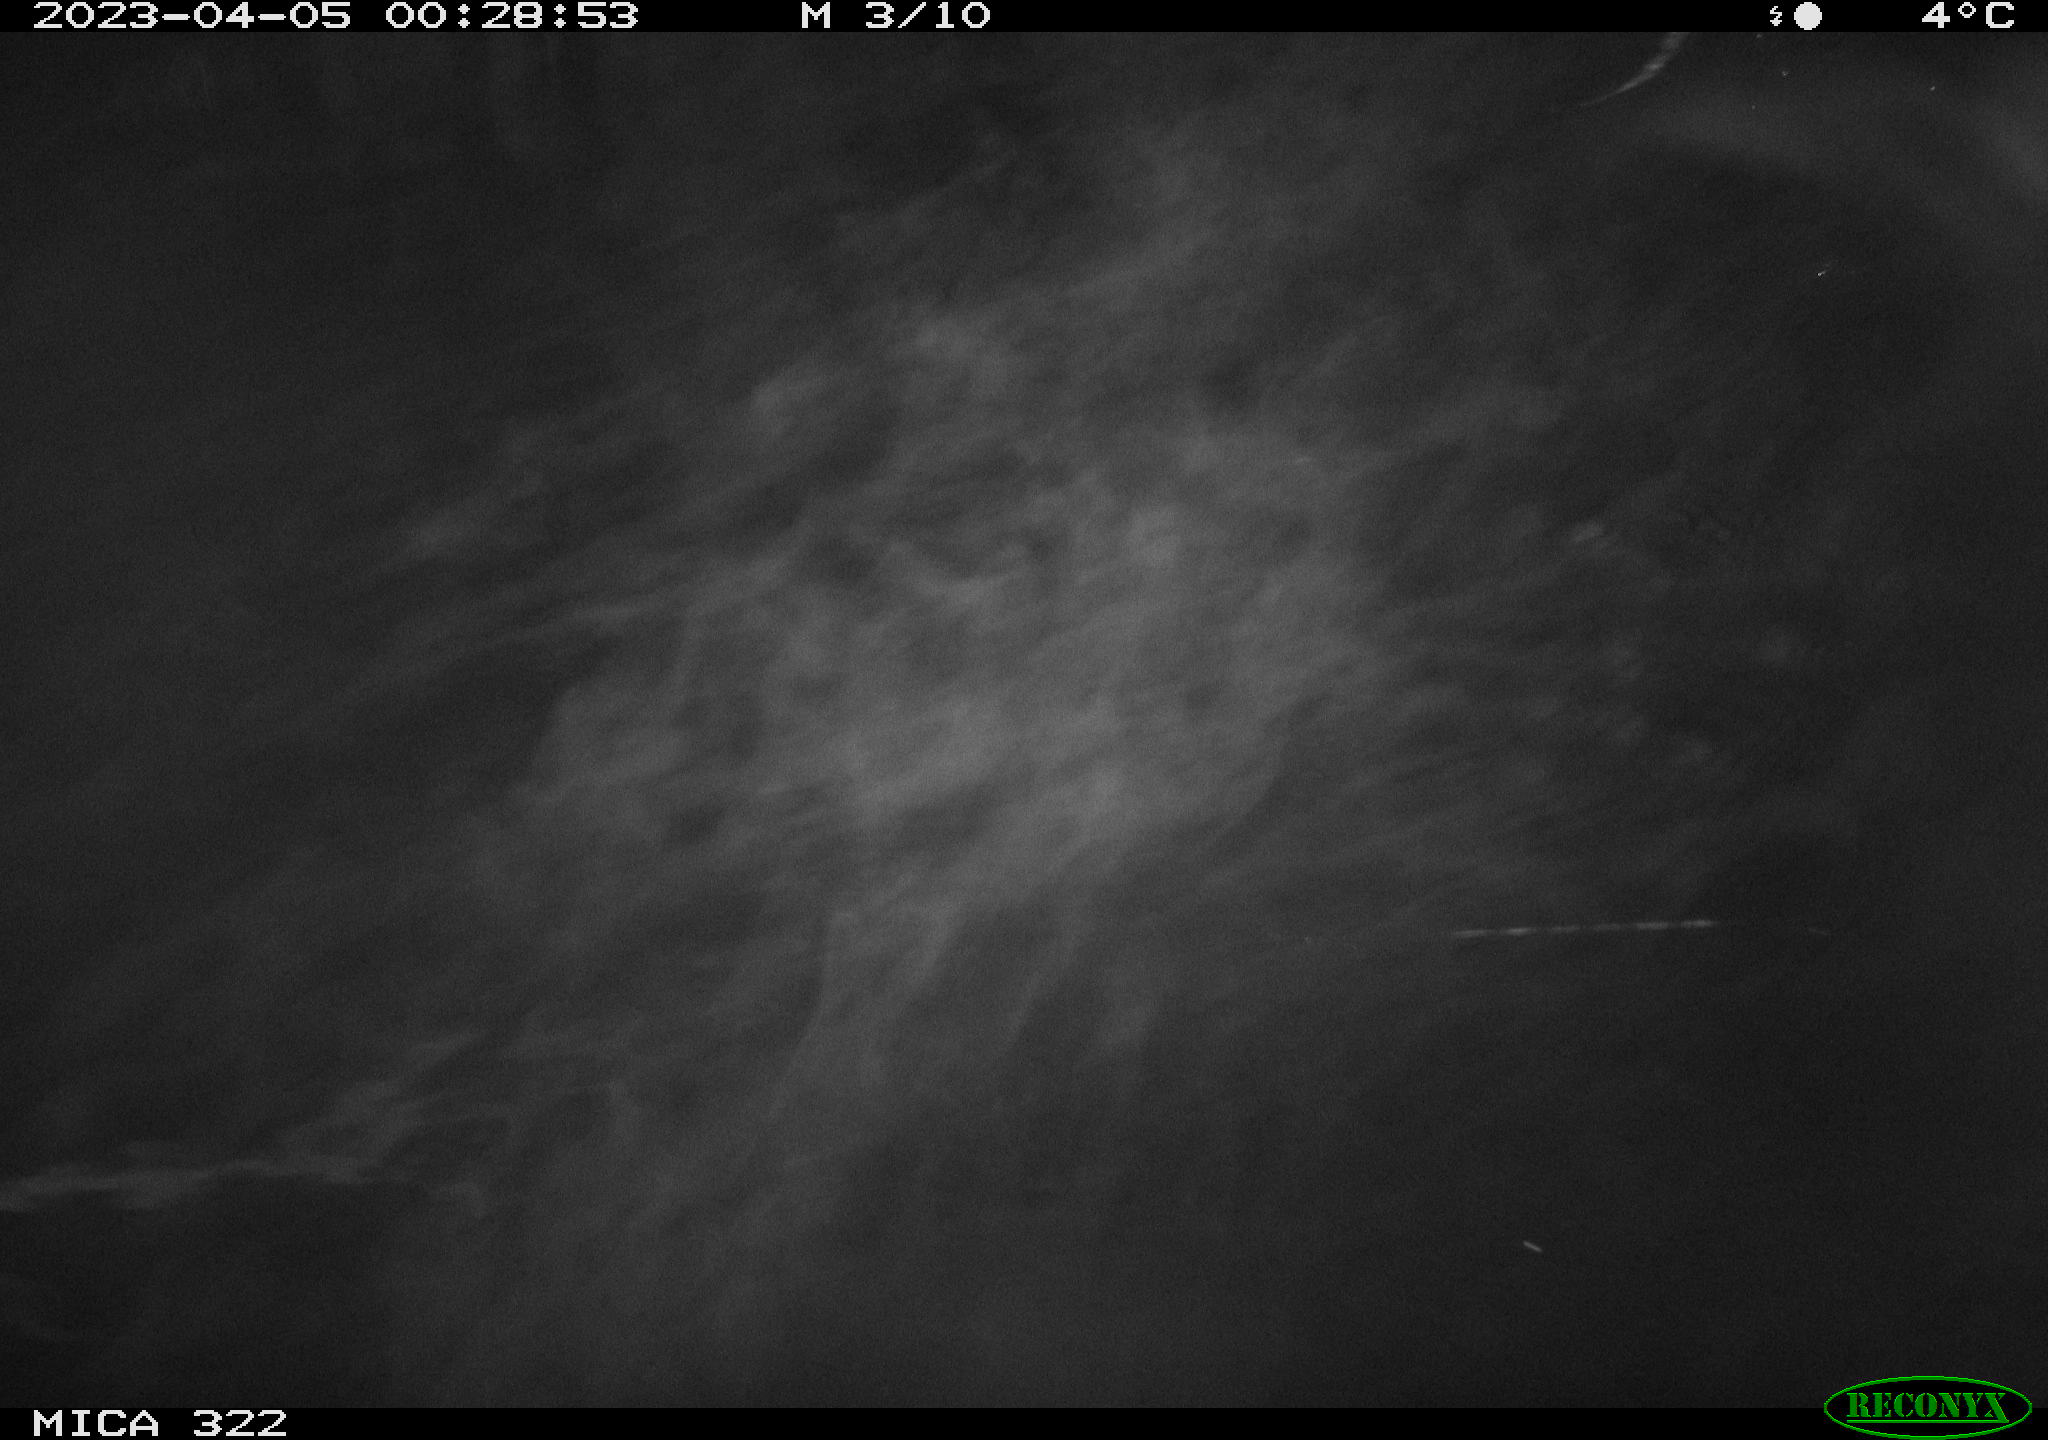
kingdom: Animalia
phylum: Chordata
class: Mammalia
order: Rodentia
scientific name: Rodentia
